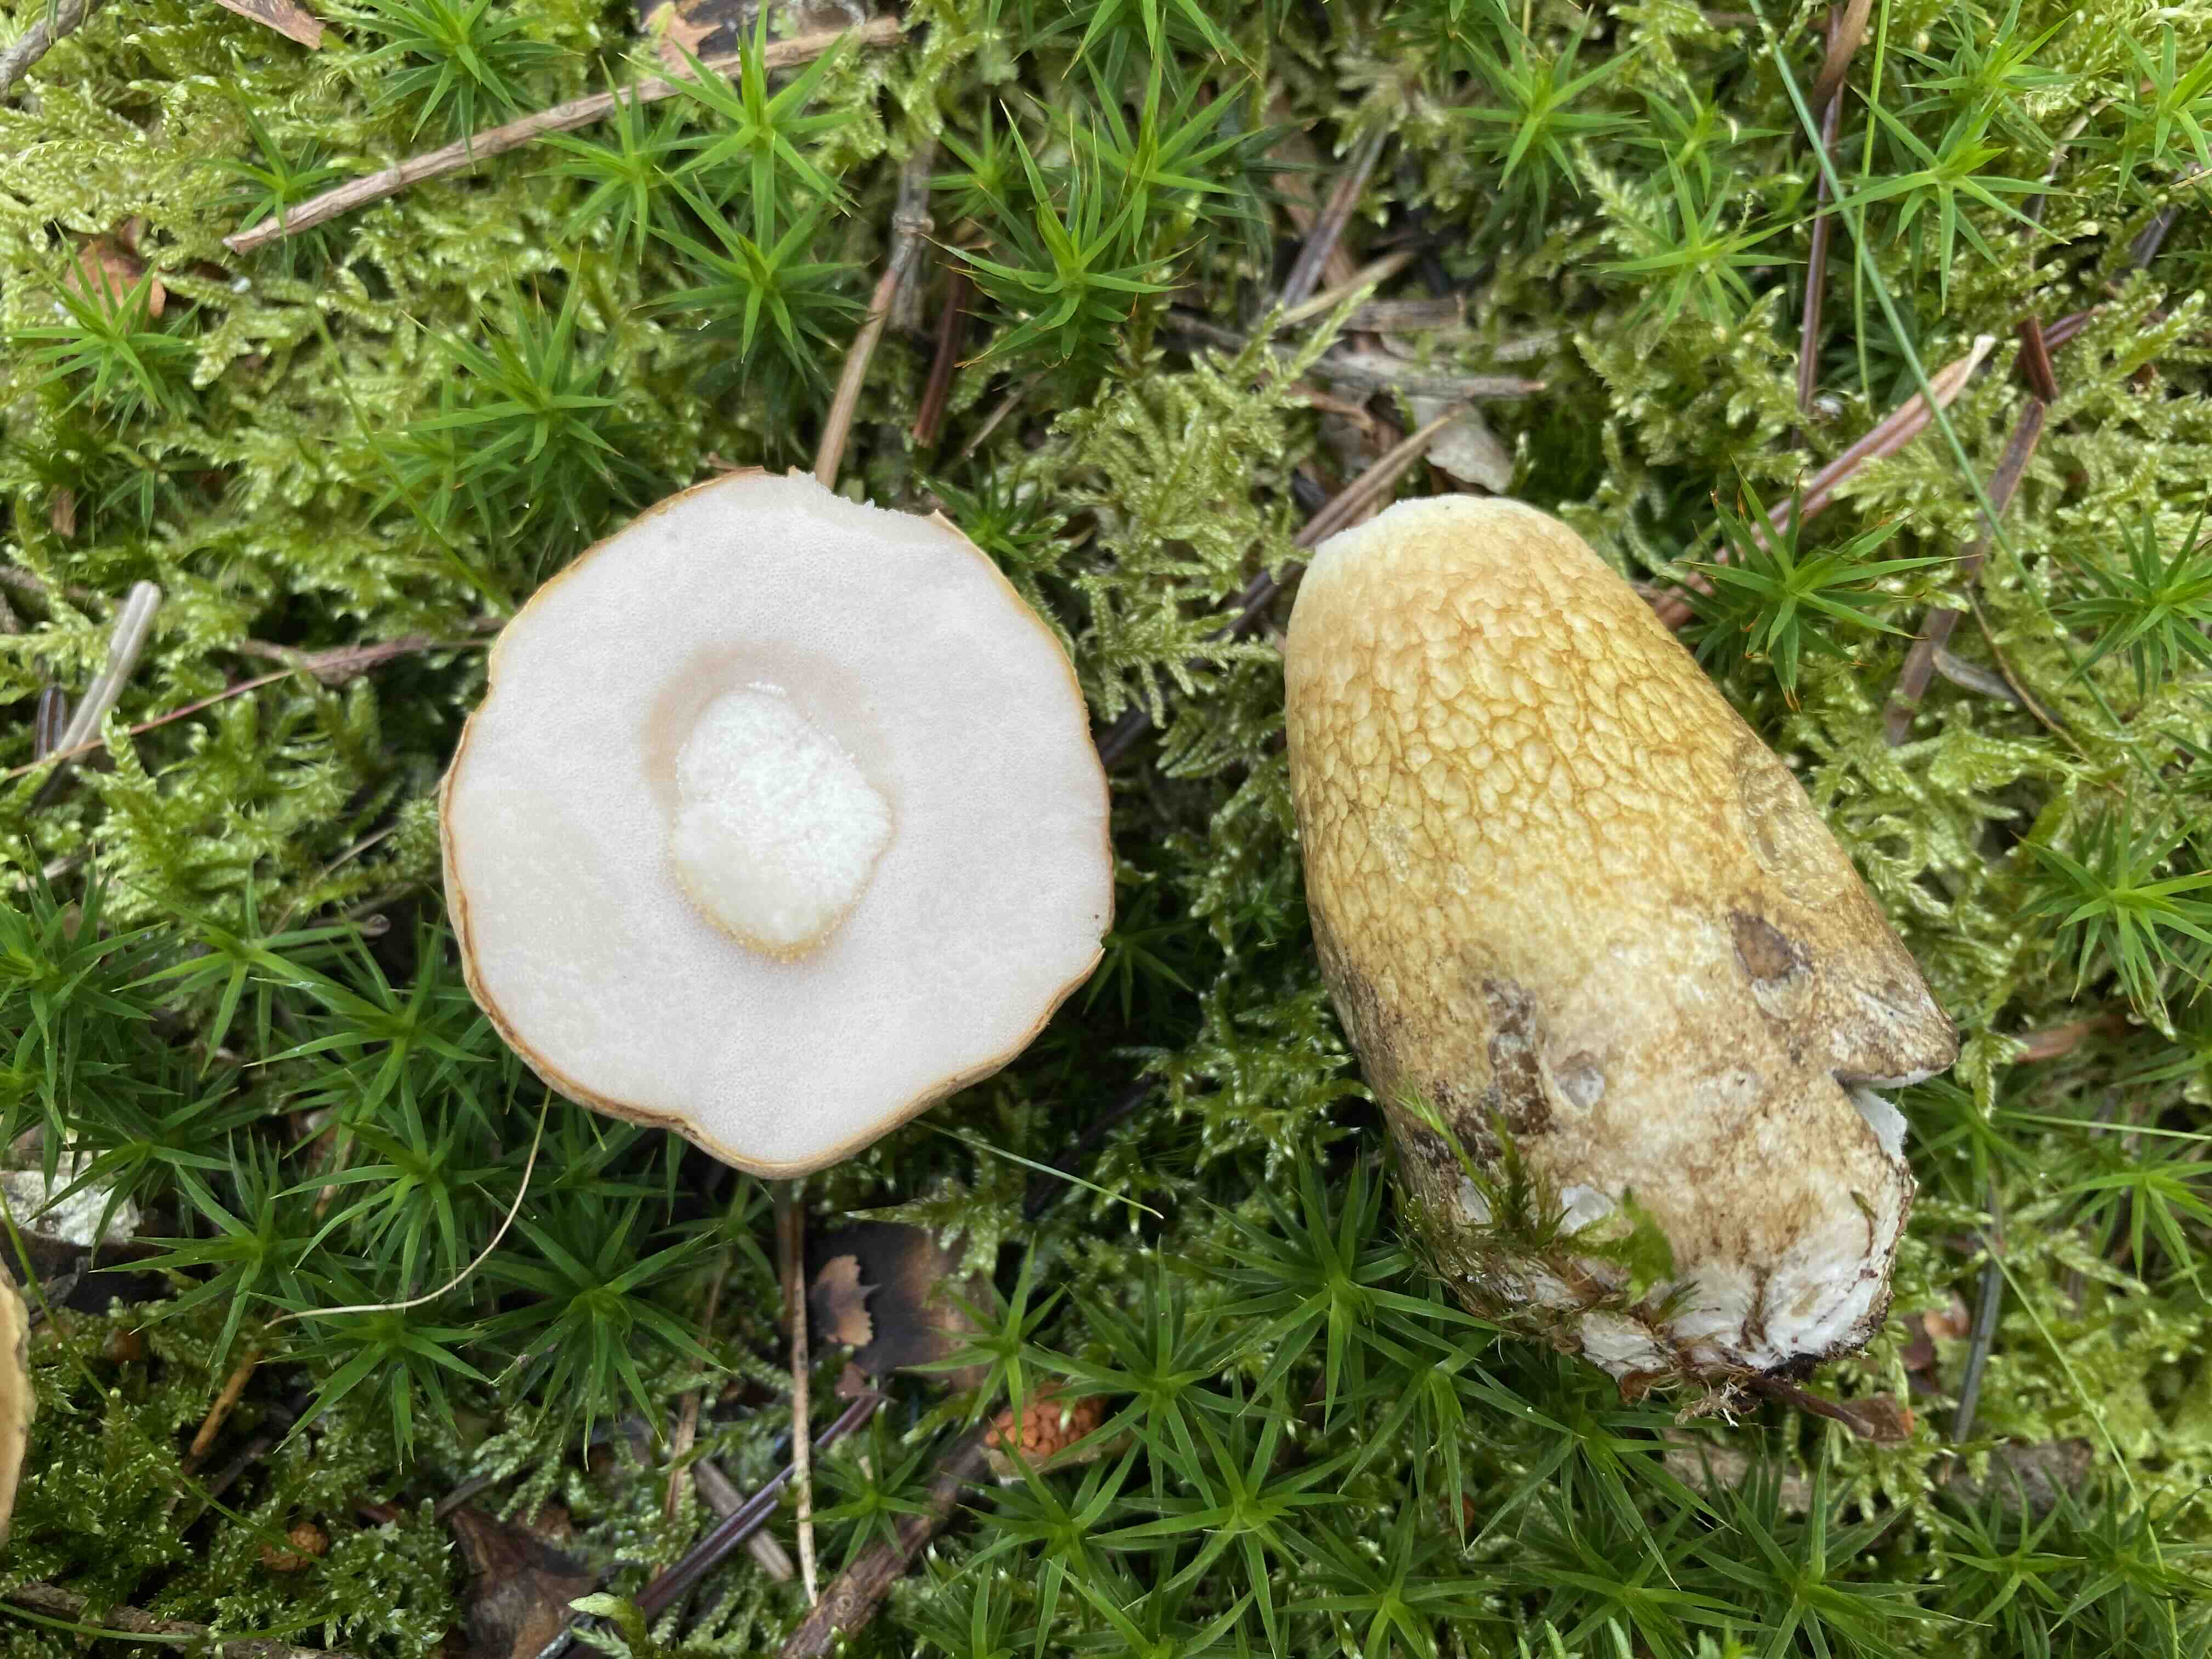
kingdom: Fungi
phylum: Basidiomycota
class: Agaricomycetes
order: Boletales
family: Boletaceae
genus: Tylopilus
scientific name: Tylopilus felleus
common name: galderørhat
